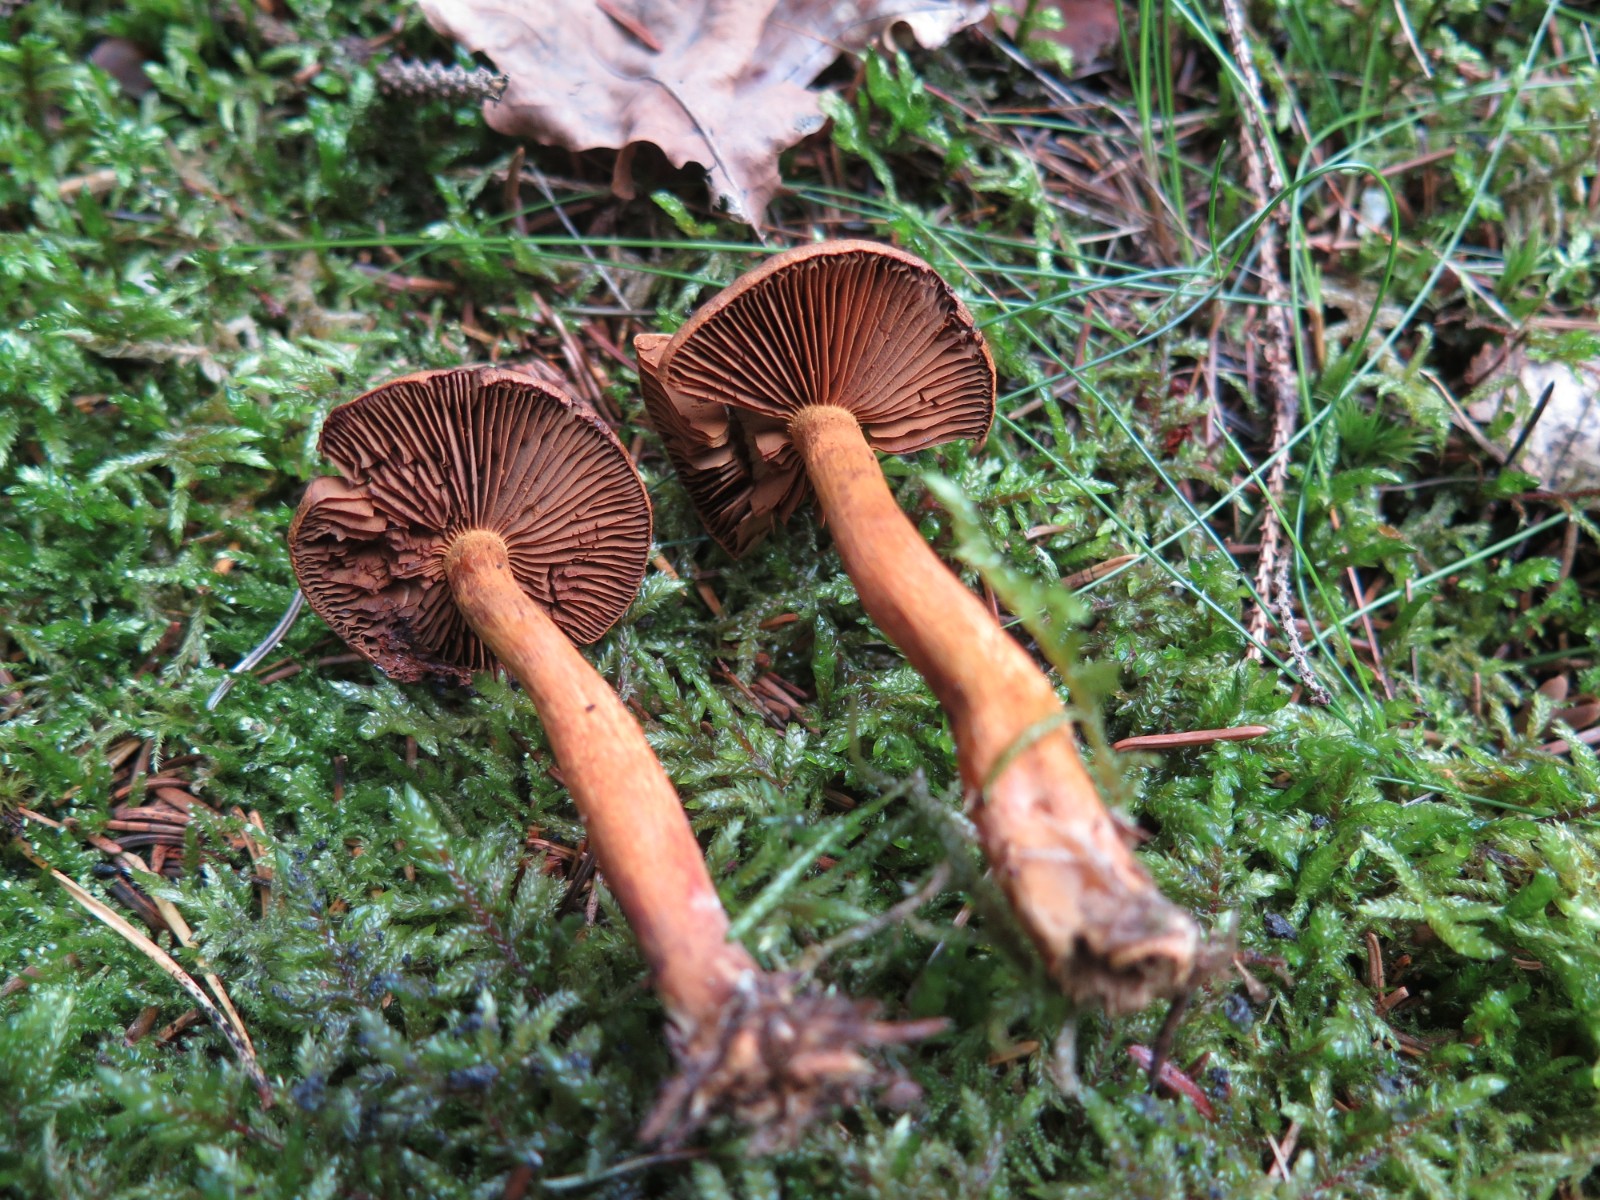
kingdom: Fungi
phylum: Basidiomycota
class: Agaricomycetes
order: Agaricales
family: Cortinariaceae
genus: Cortinarius
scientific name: Cortinarius
